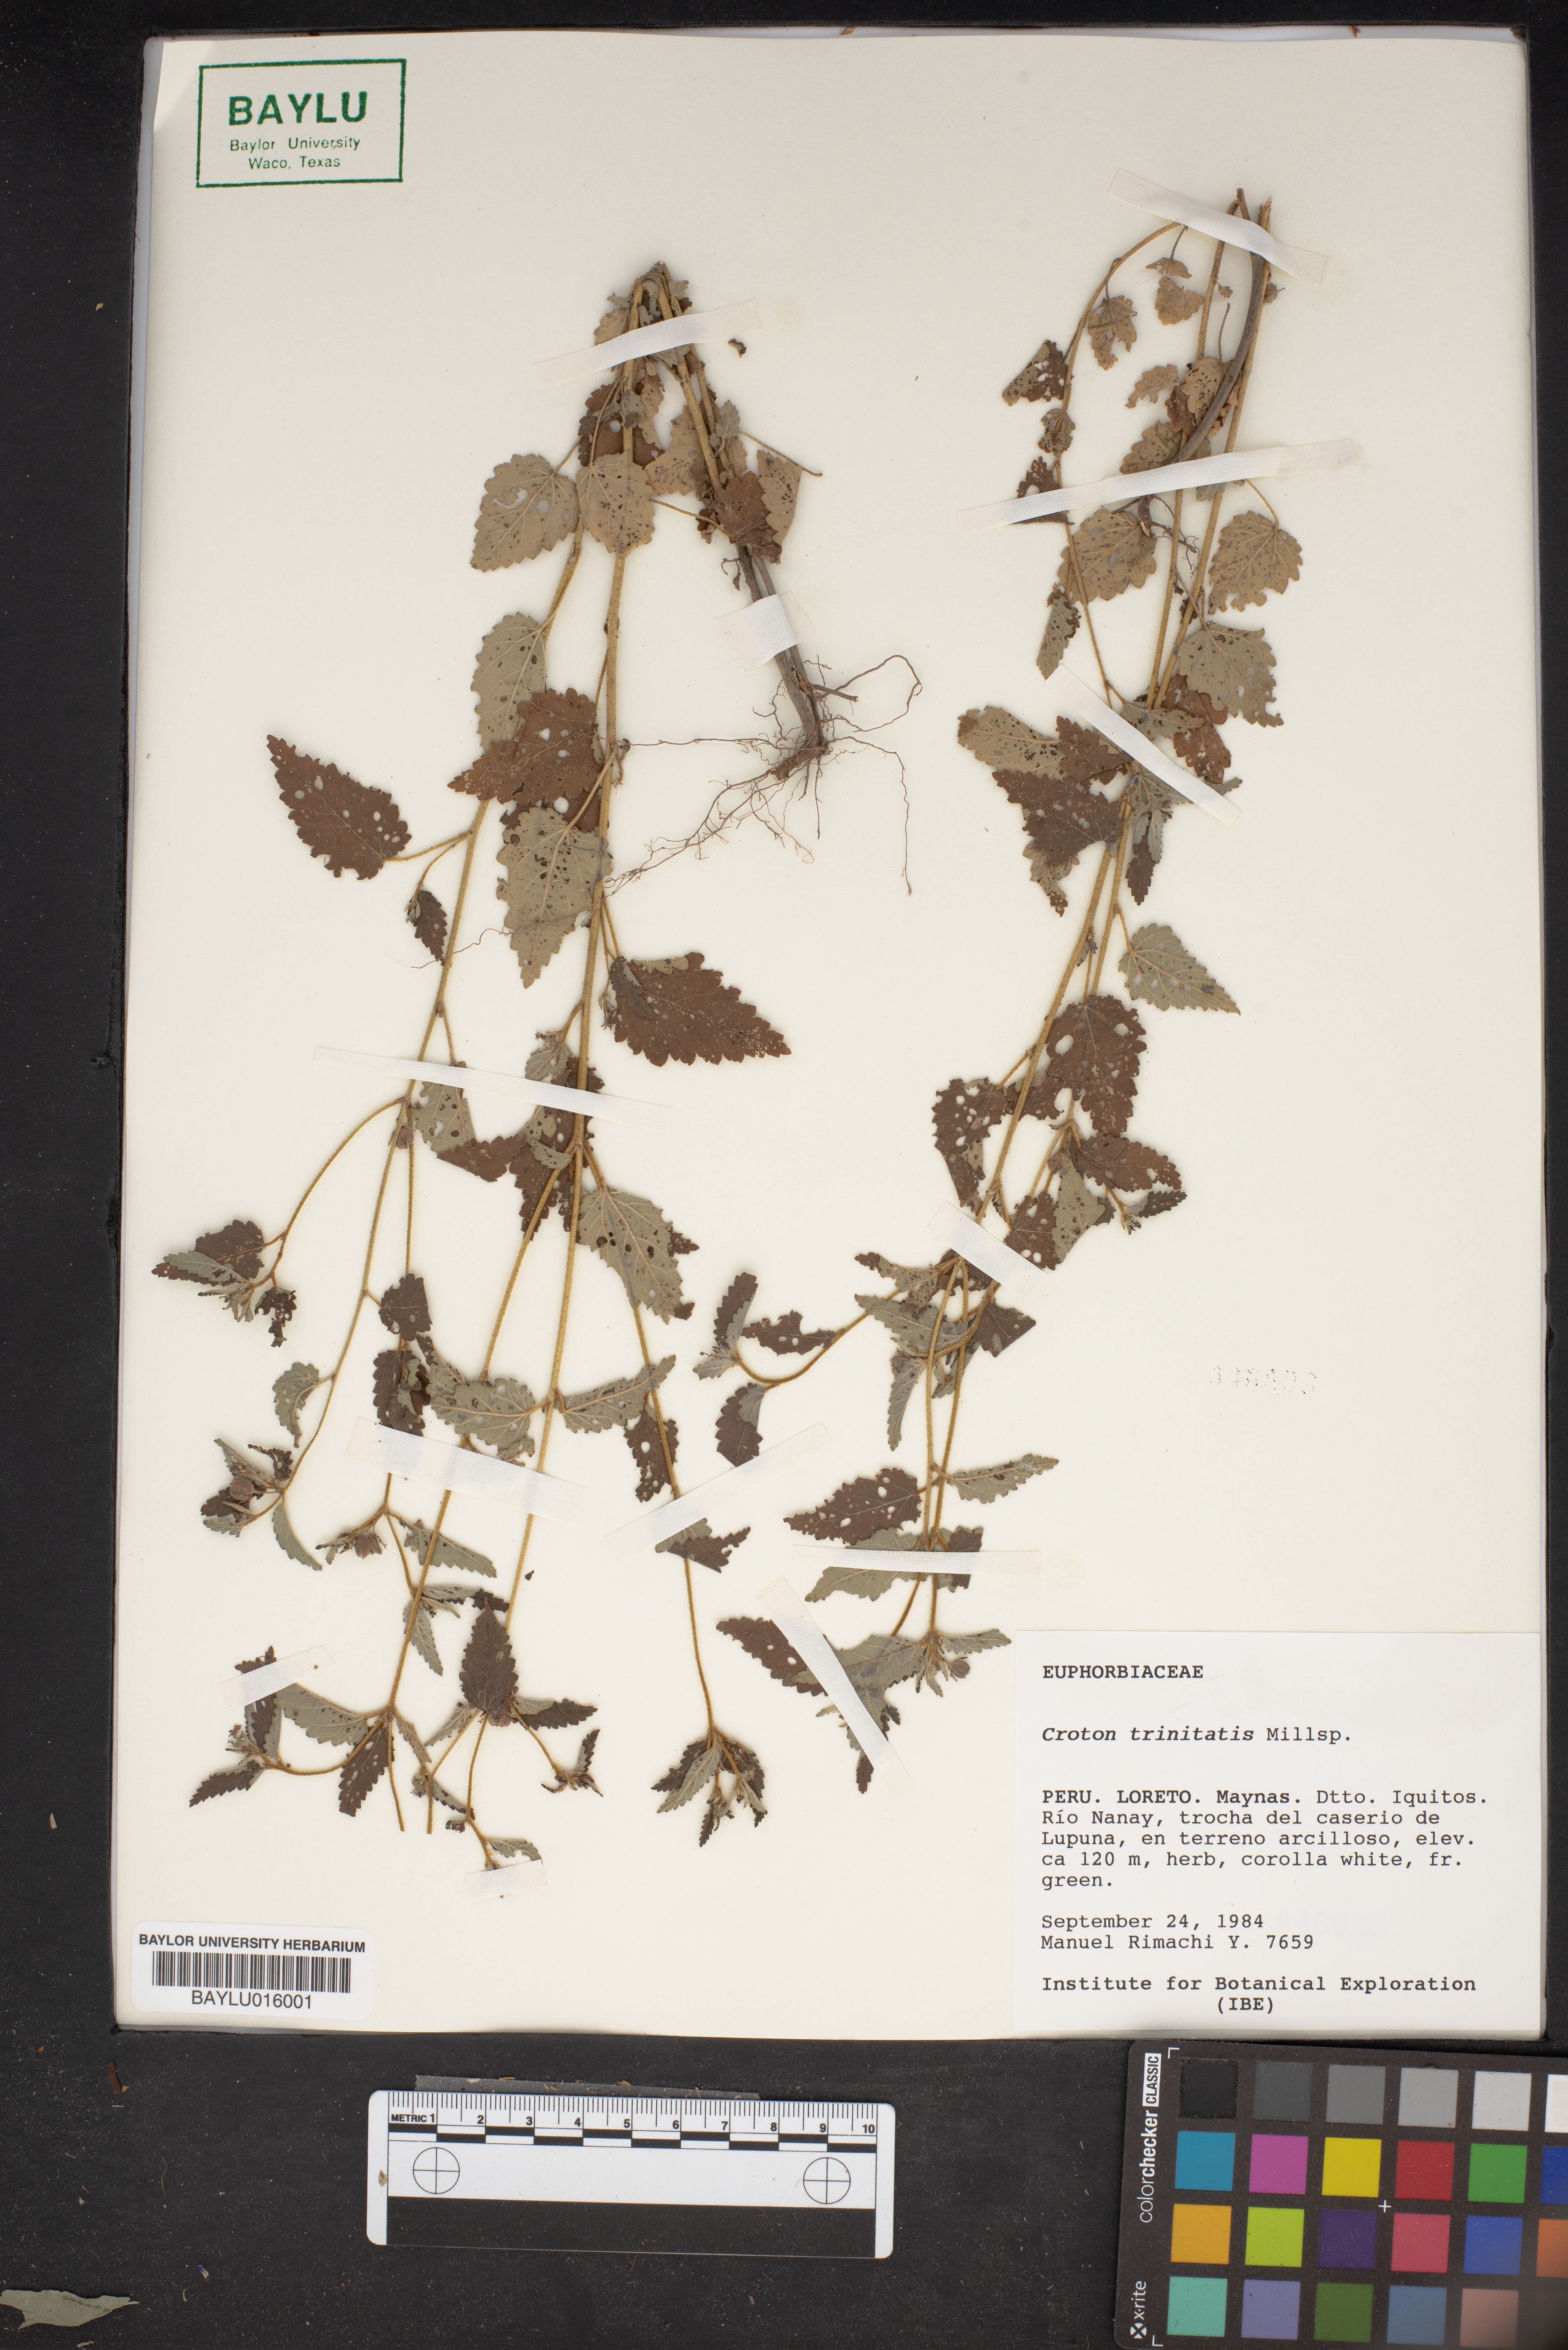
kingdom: Plantae
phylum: Tracheophyta
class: Magnoliopsida
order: Malpighiales
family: Euphorbiaceae
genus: Croton
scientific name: Croton trinitatis
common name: Roadside croton
